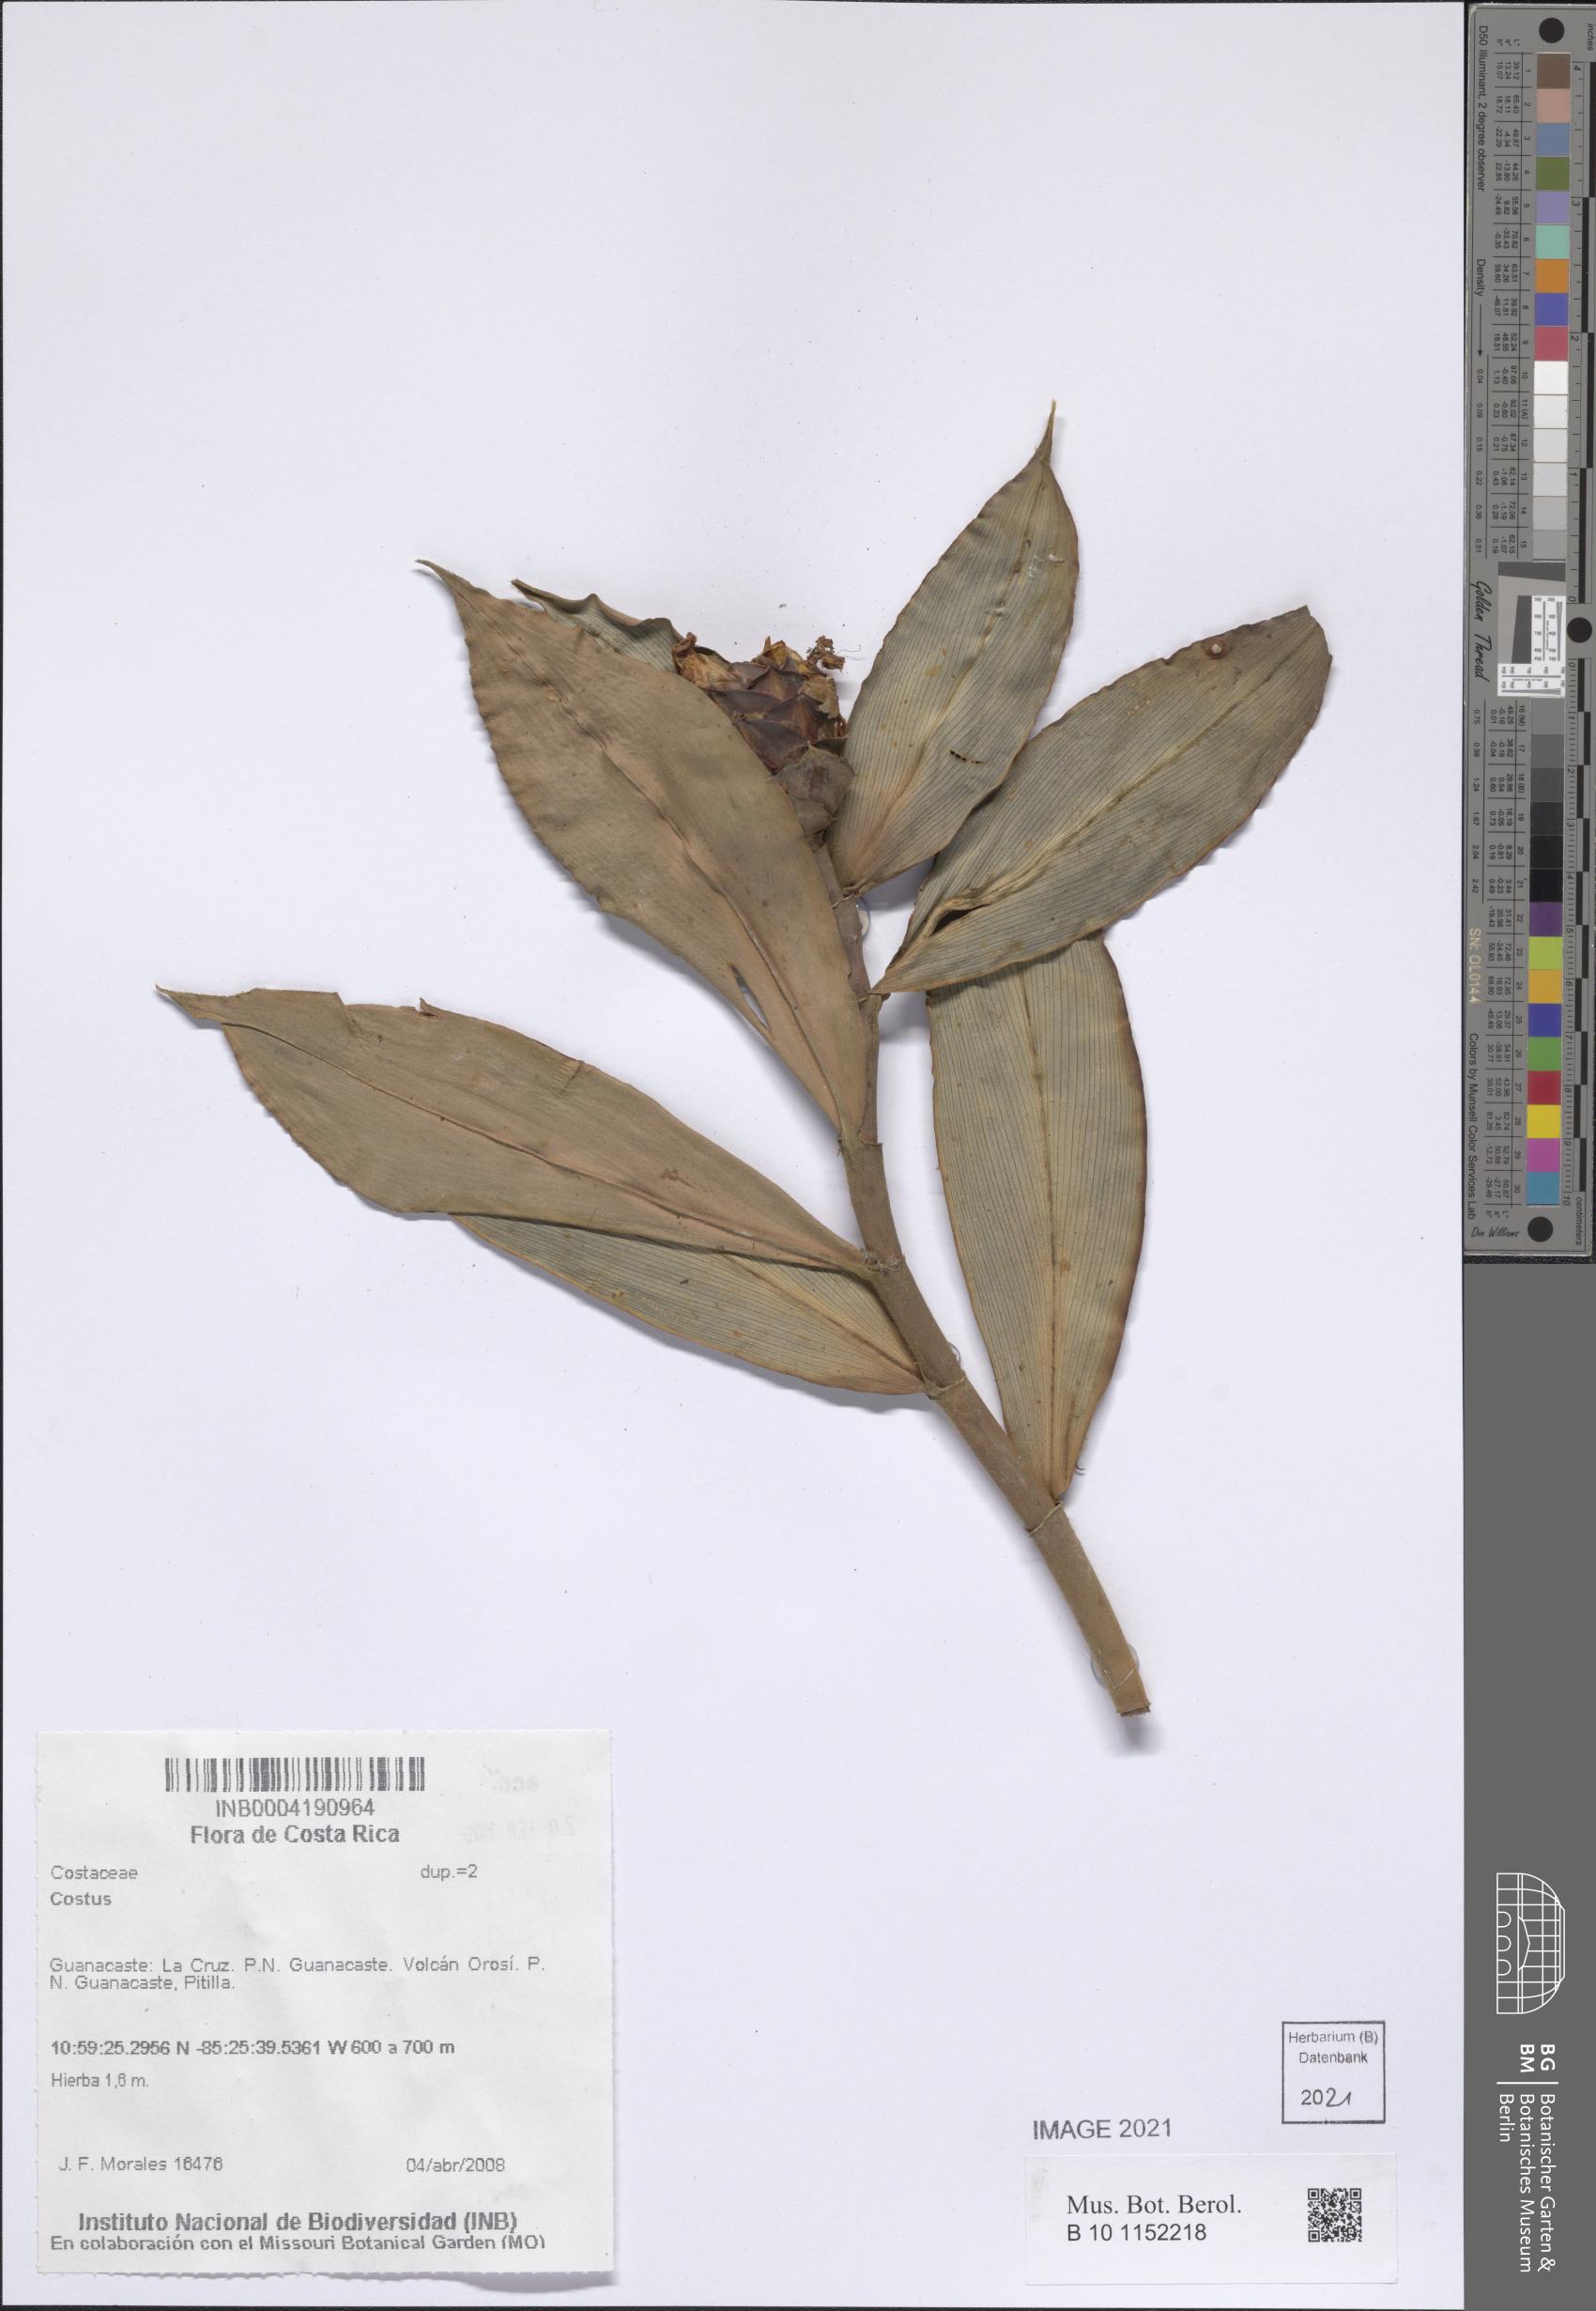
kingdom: Plantae
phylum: Tracheophyta
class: Liliopsida
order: Zingiberales
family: Costaceae
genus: Costus
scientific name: Costus
